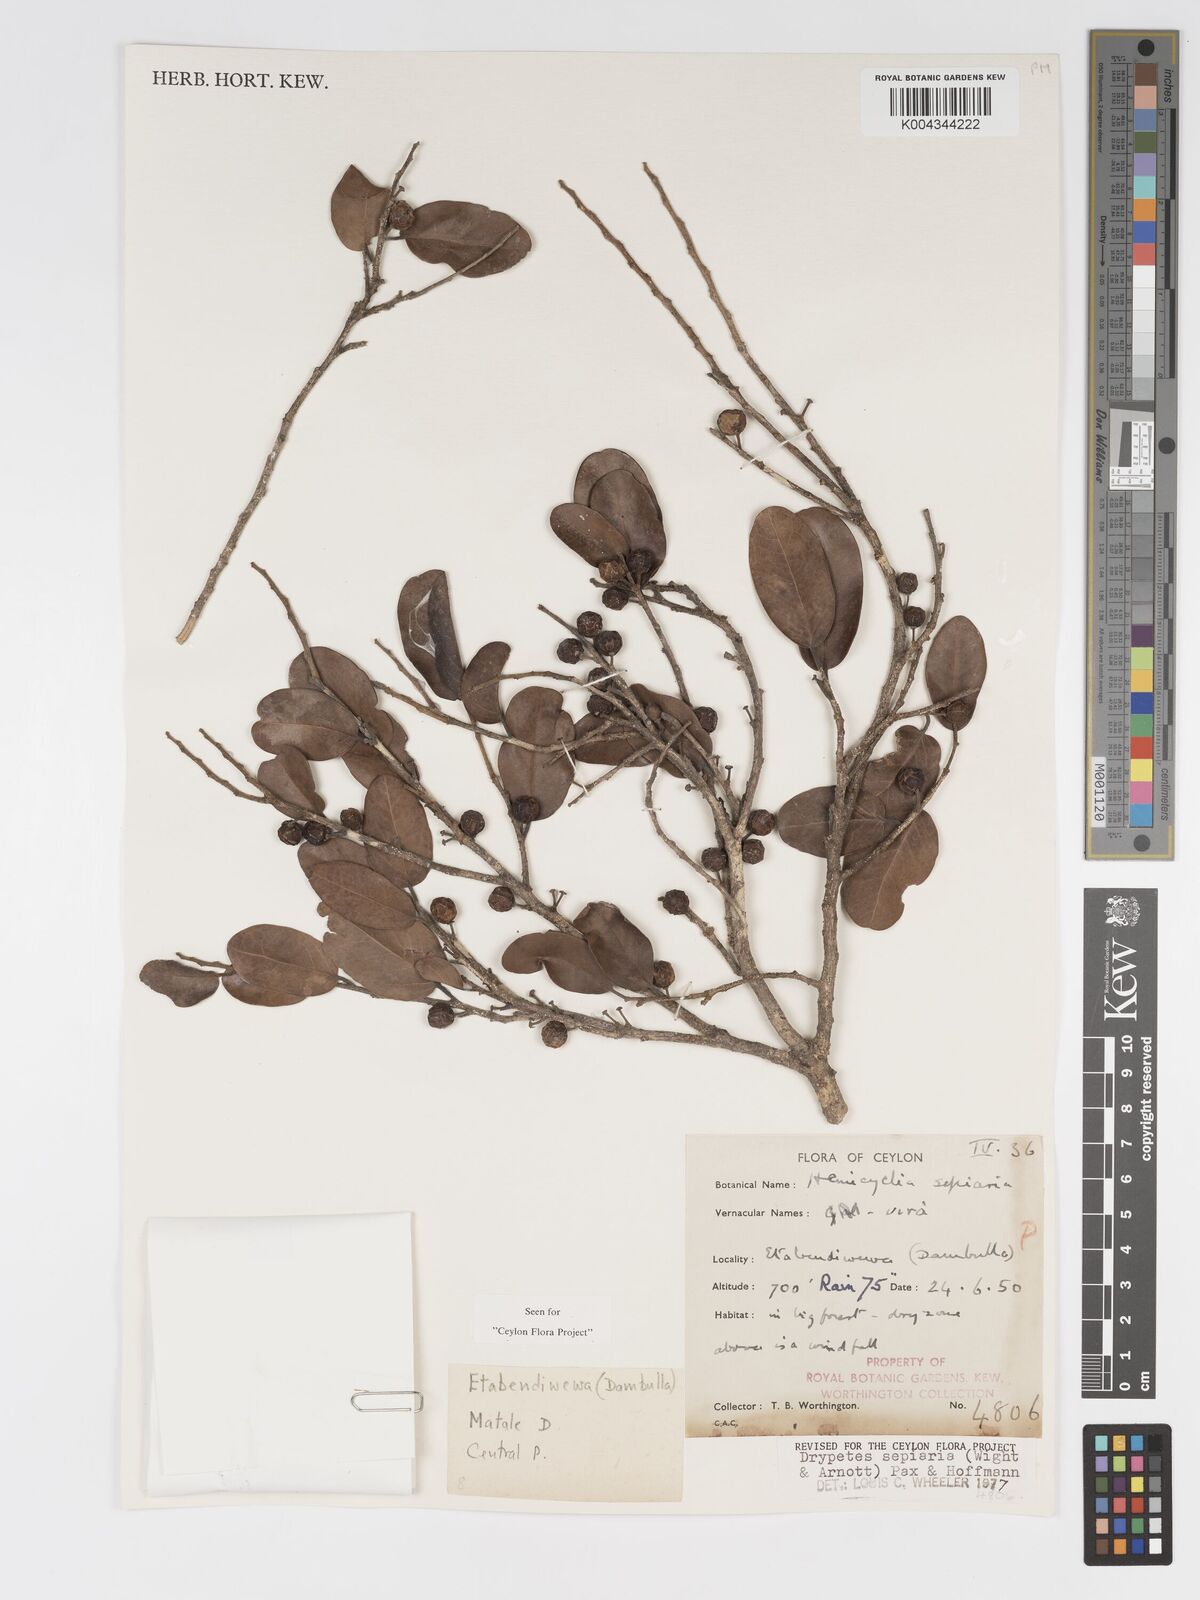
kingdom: Plantae
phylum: Tracheophyta
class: Magnoliopsida
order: Malpighiales
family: Putranjivaceae
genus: Drypetes
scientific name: Drypetes sepiaria
